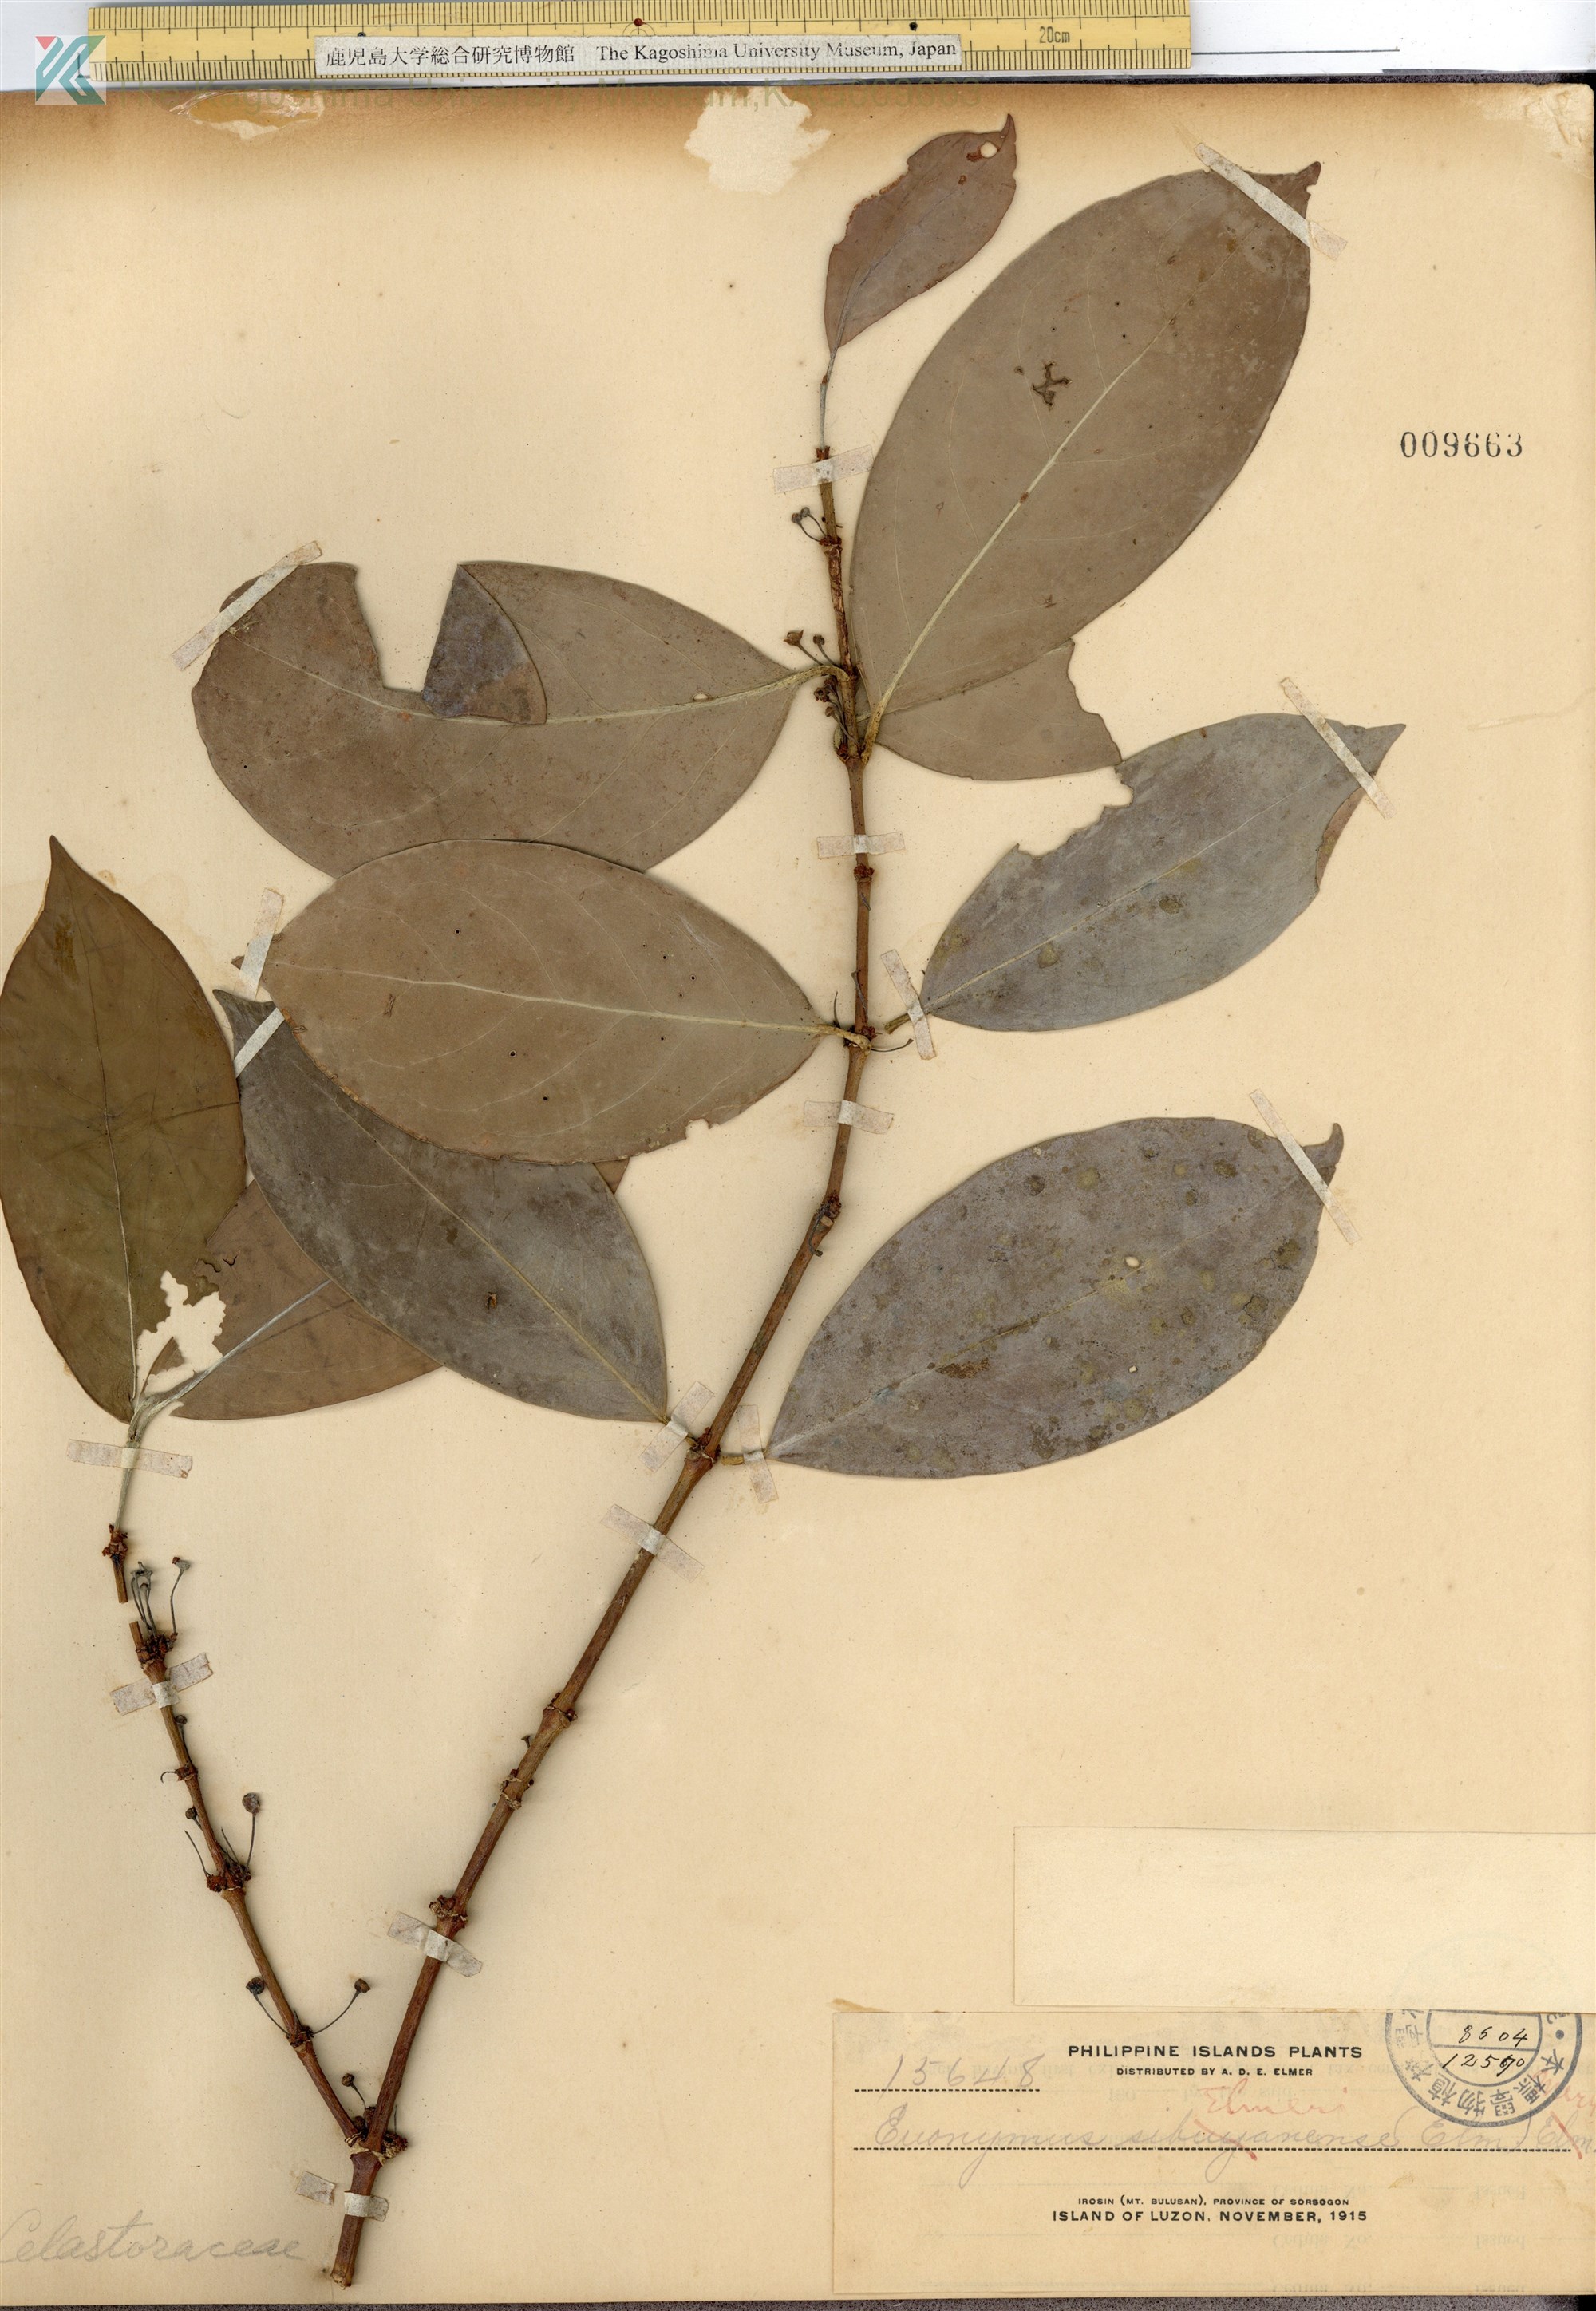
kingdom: Plantae
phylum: Tracheophyta
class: Magnoliopsida
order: Celastrales
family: Celastraceae
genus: Euonymus
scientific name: Euonymus indicus
